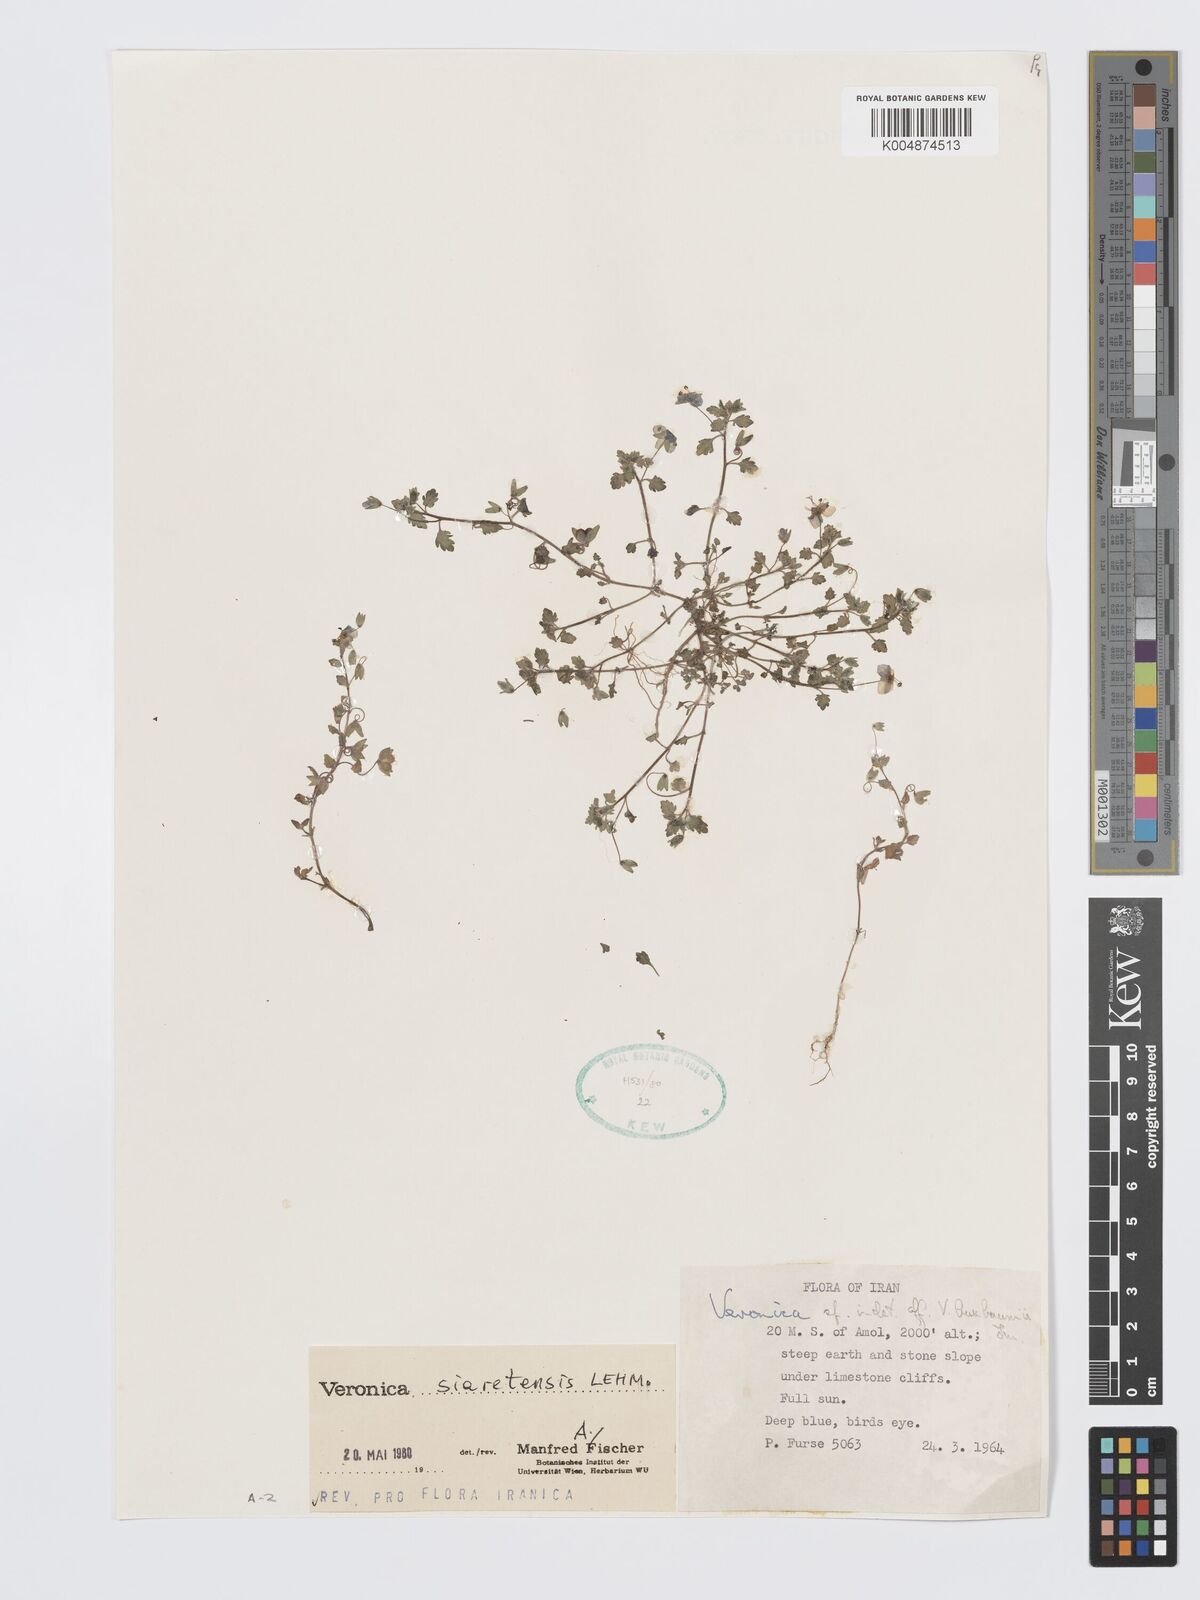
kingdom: Plantae
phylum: Tracheophyta
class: Magnoliopsida
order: Lamiales
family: Plantaginaceae
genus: Veronica
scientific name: Veronica siaretensis
